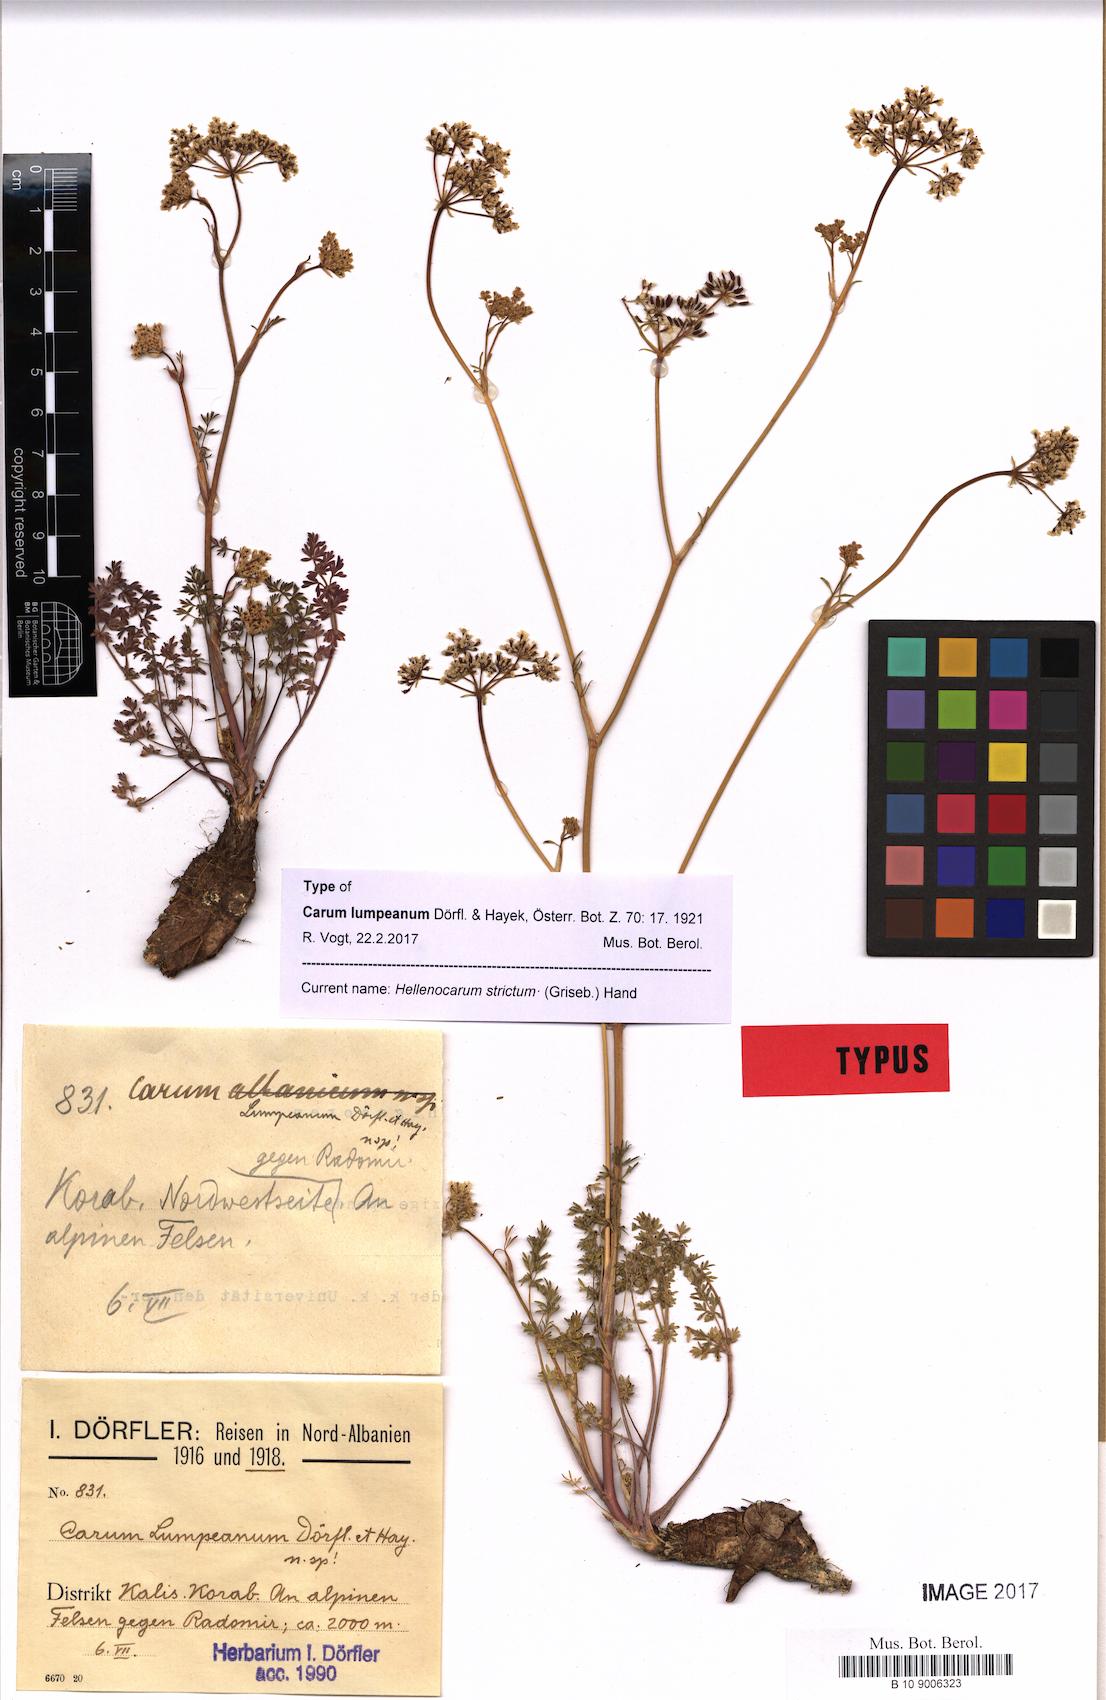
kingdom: Plantae
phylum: Tracheophyta
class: Magnoliopsida
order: Apiales
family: Apiaceae
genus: Hellenocarum
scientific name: Hellenocarum strictum
